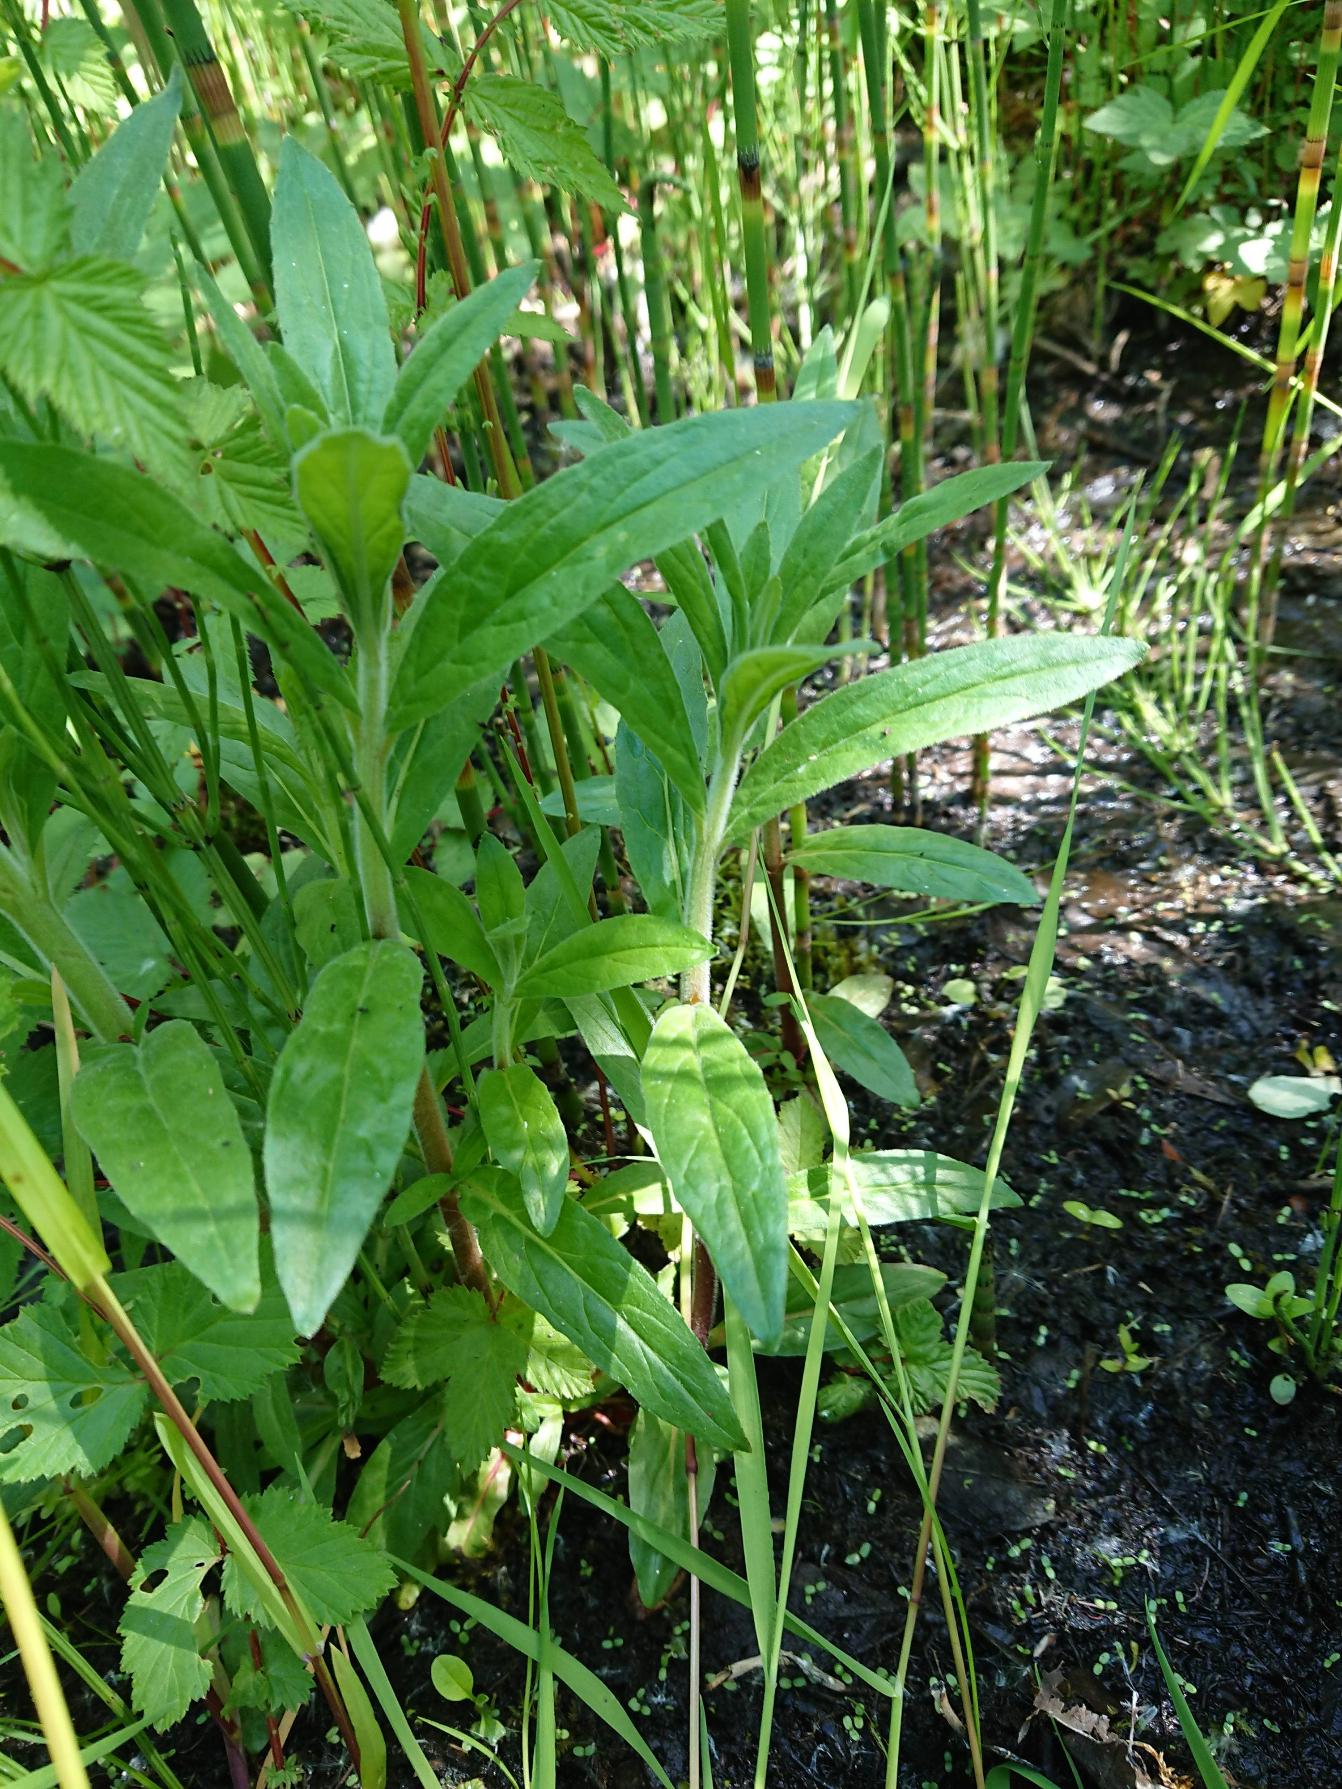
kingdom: Plantae
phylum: Tracheophyta
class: Magnoliopsida
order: Myrtales
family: Onagraceae
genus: Epilobium
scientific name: Epilobium parviflorum
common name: Dunet dueurt
